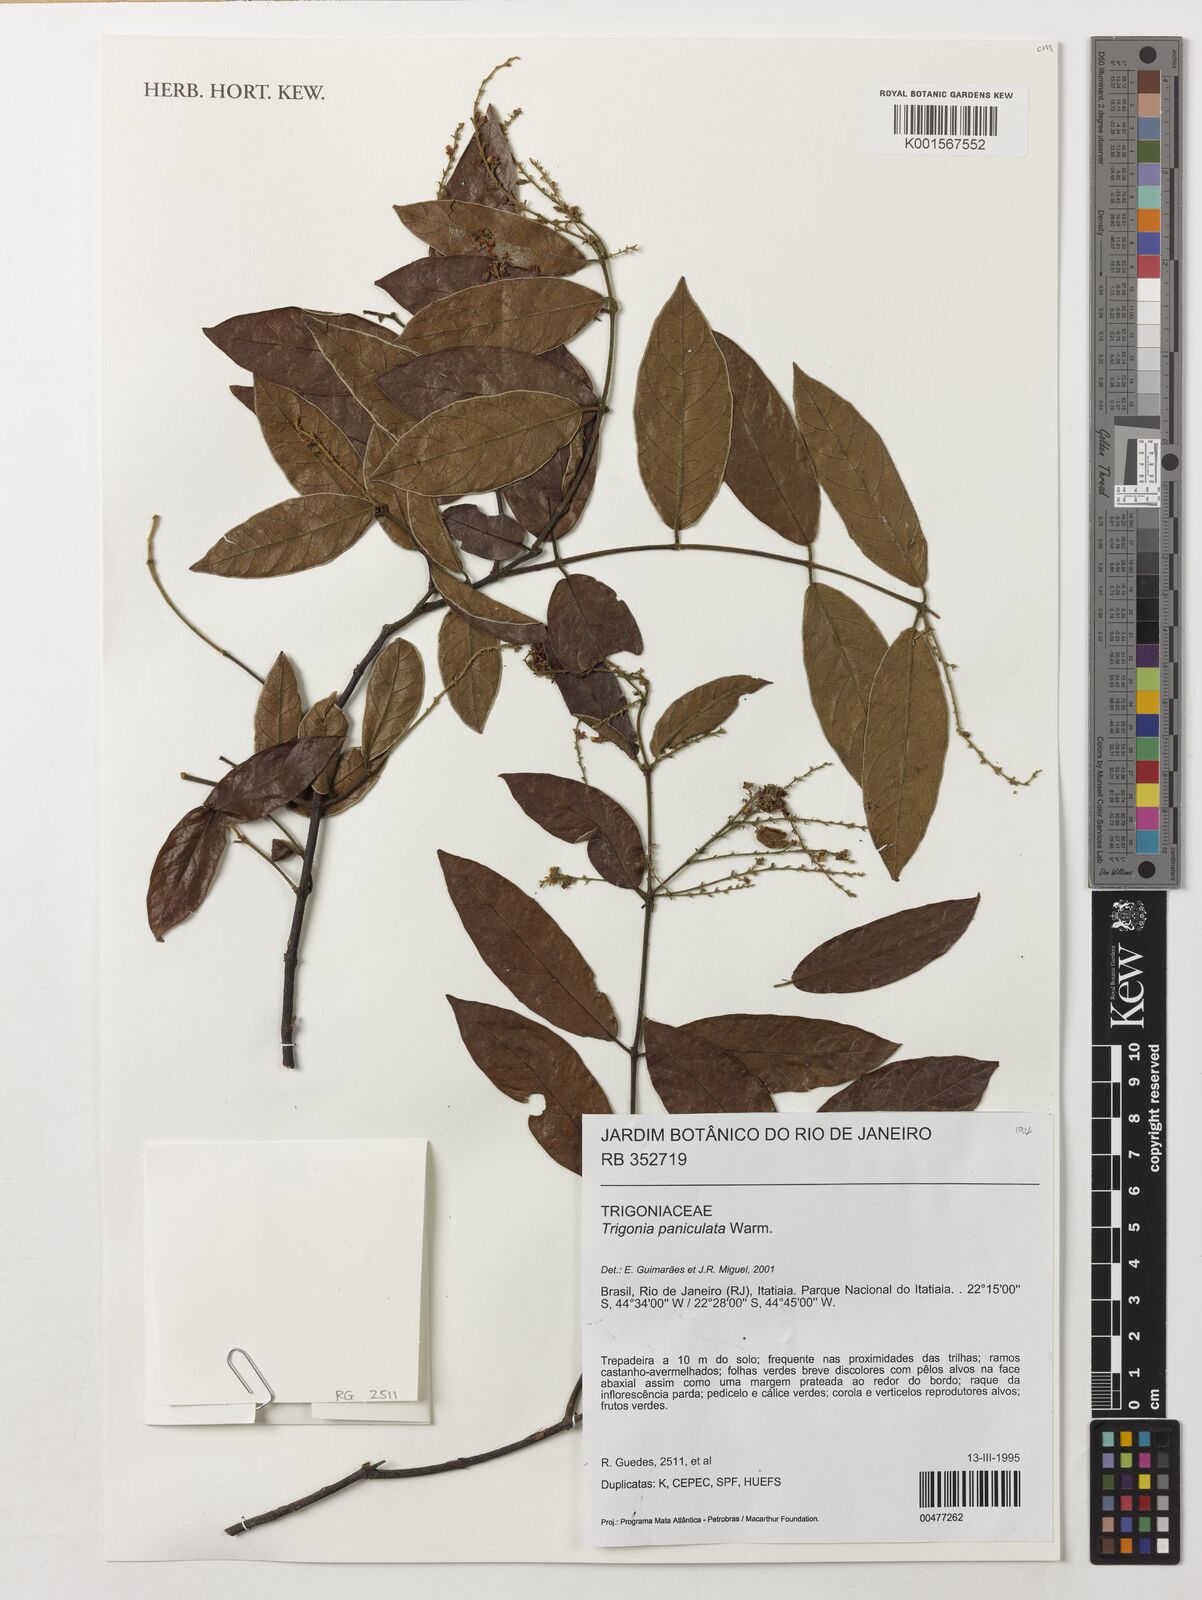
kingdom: Plantae
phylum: Tracheophyta
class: Magnoliopsida
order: Malpighiales
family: Trigoniaceae
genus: Trigonia
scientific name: Trigonia paniculata
